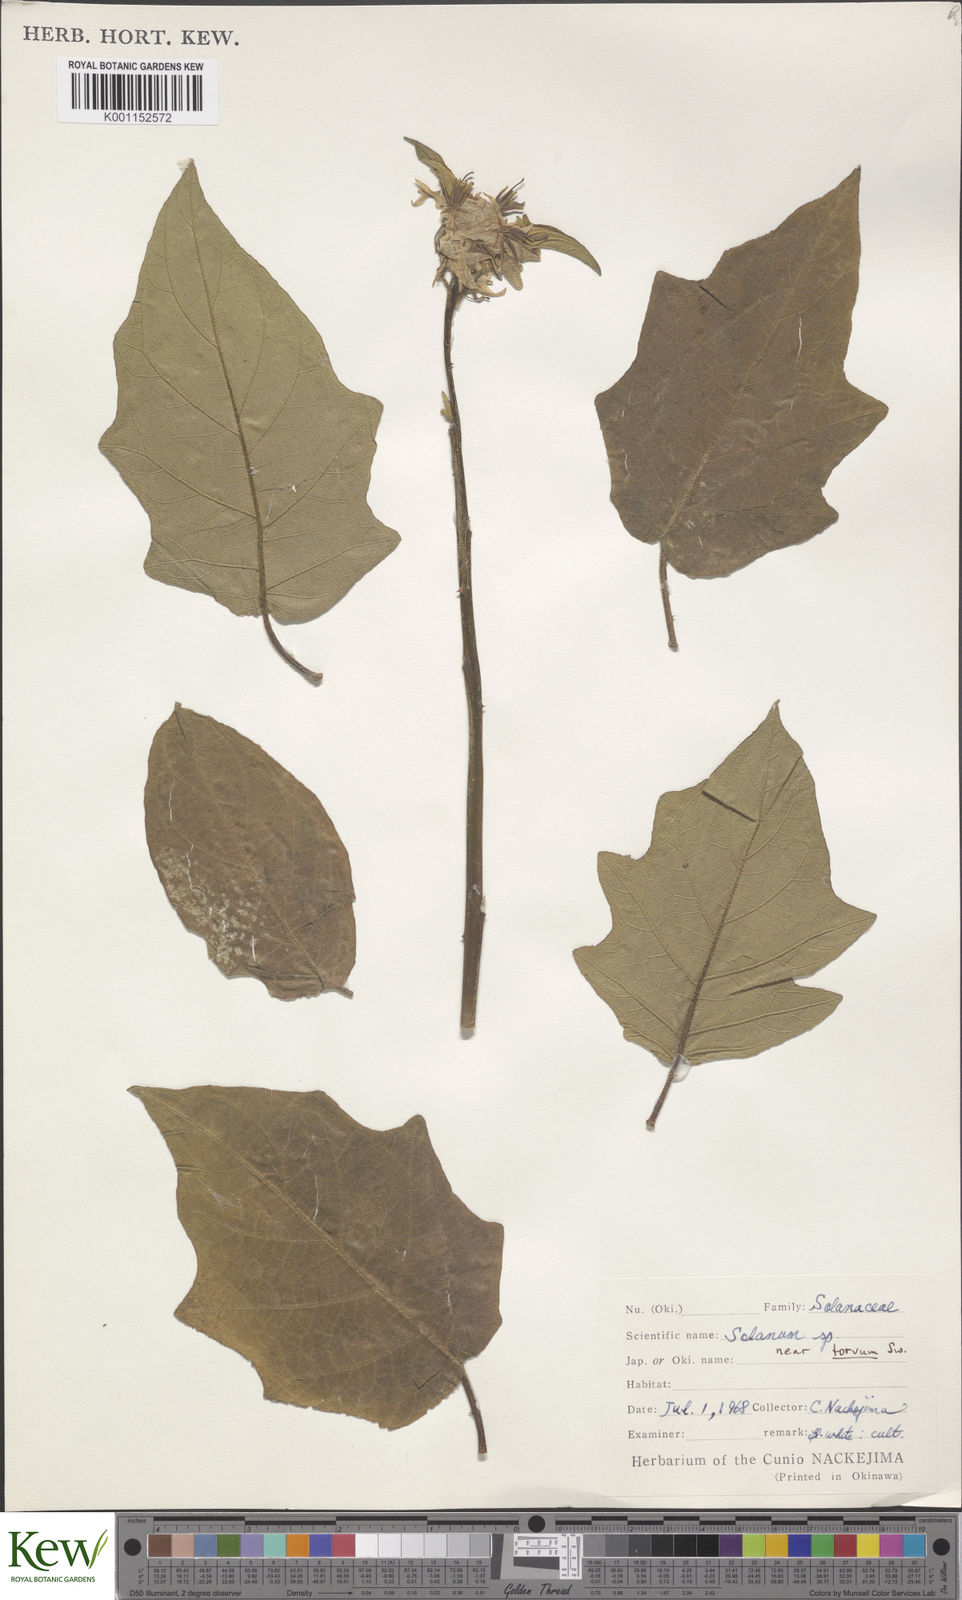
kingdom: Plantae
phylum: Tracheophyta
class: Magnoliopsida
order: Solanales
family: Solanaceae
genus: Solanum
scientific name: Solanum torvum
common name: Turkey berry
